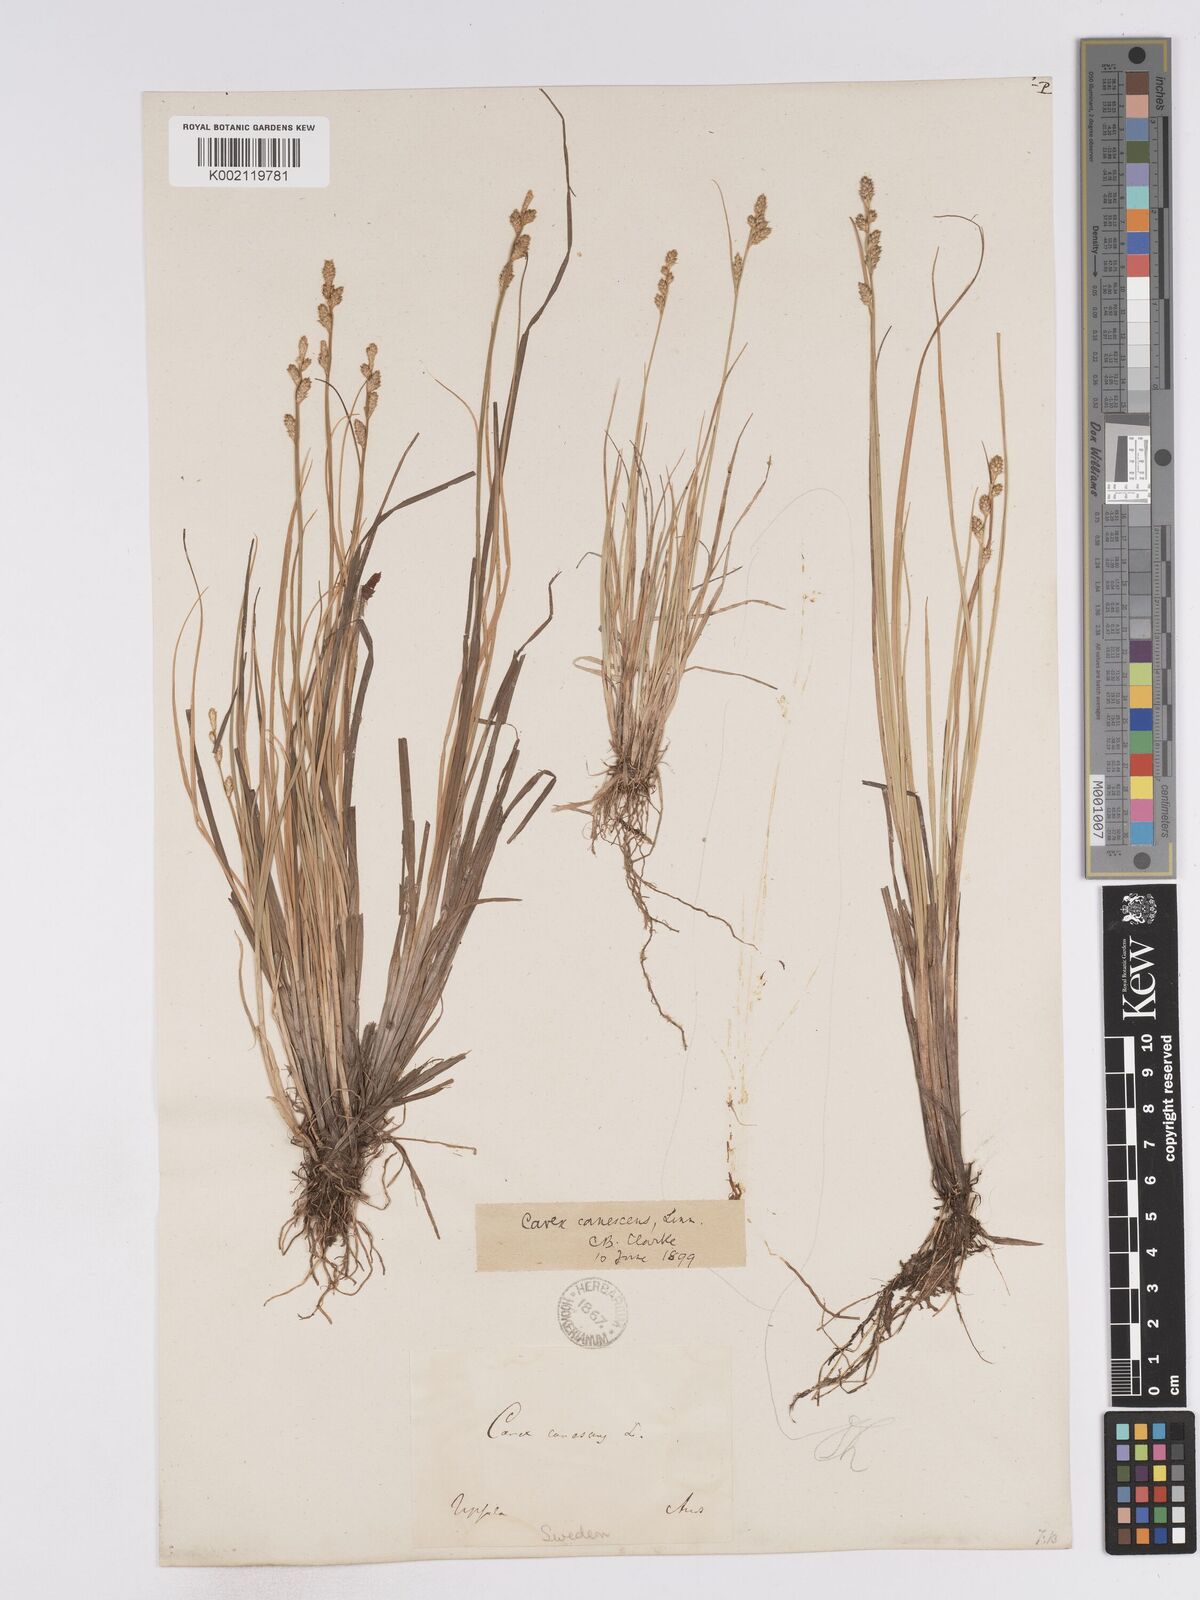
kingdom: Plantae
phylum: Tracheophyta
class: Liliopsida
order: Poales
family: Cyperaceae
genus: Carex
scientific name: Carex curta
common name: White sedge
